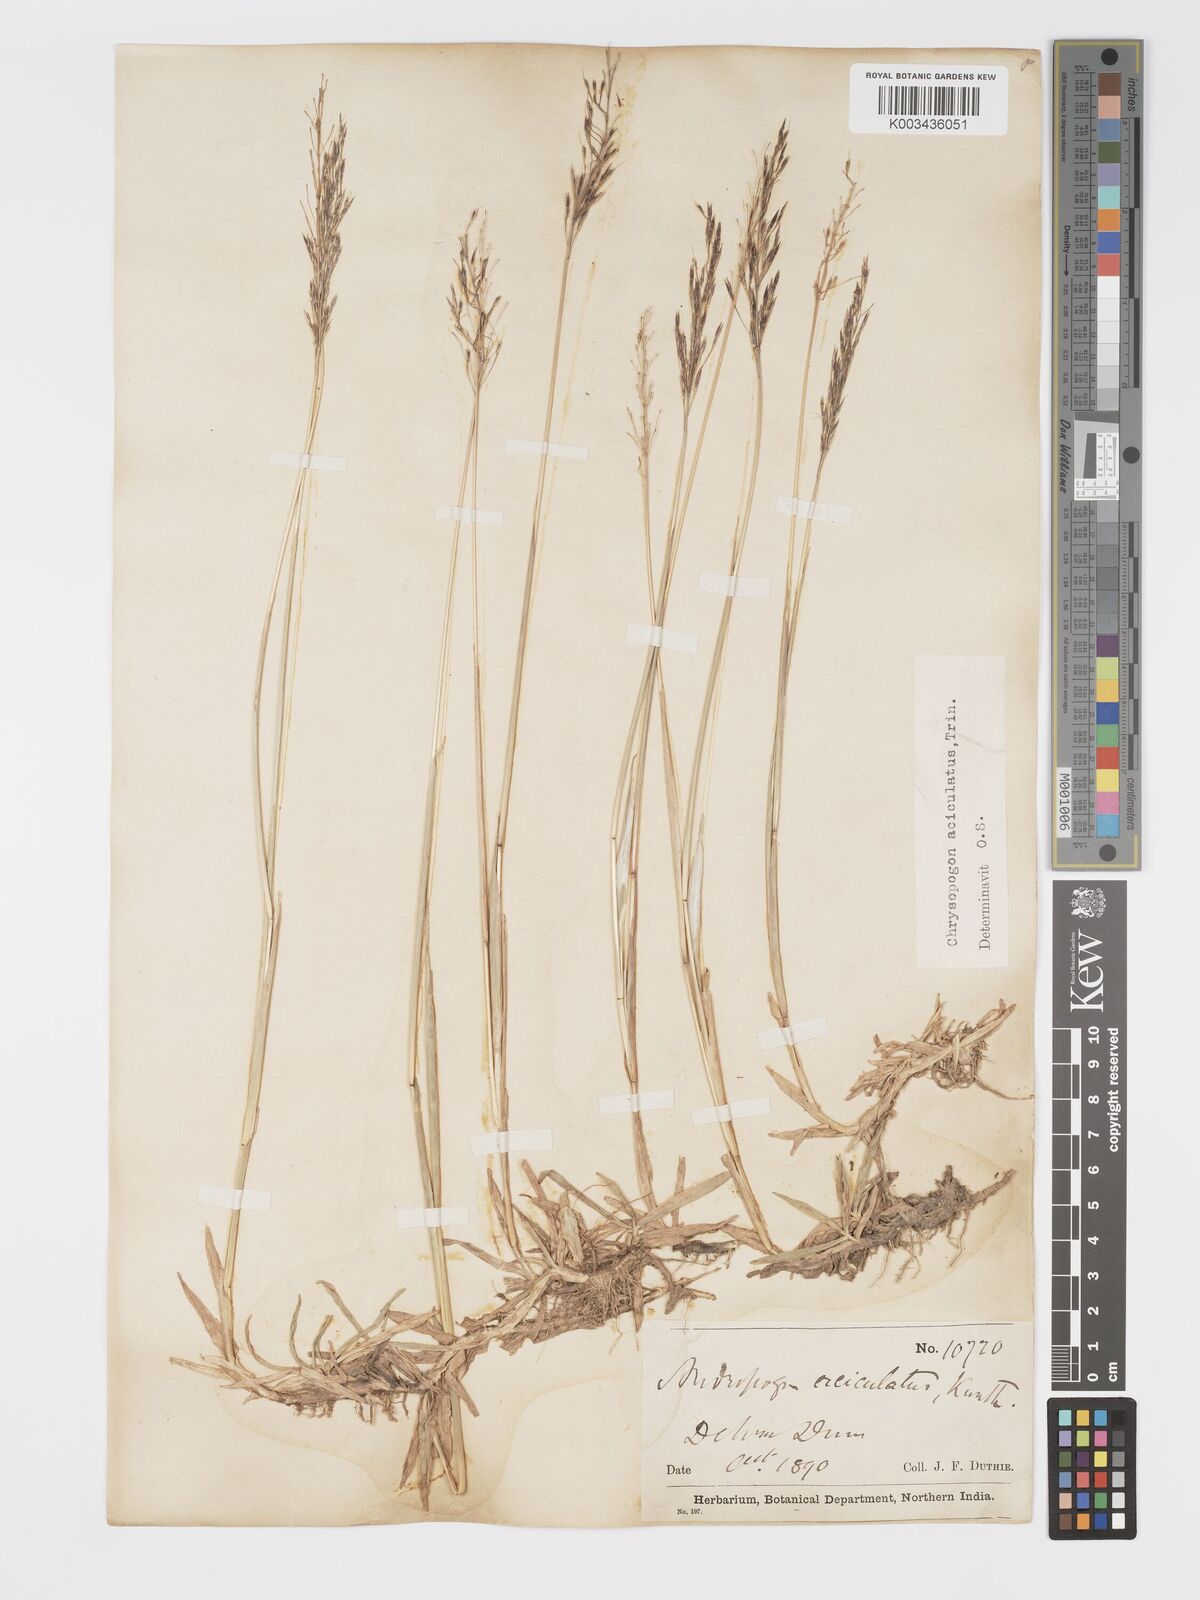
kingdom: Plantae
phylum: Tracheophyta
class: Liliopsida
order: Poales
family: Poaceae
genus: Chrysopogon
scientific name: Chrysopogon aciculatus
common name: Pilipiliula
